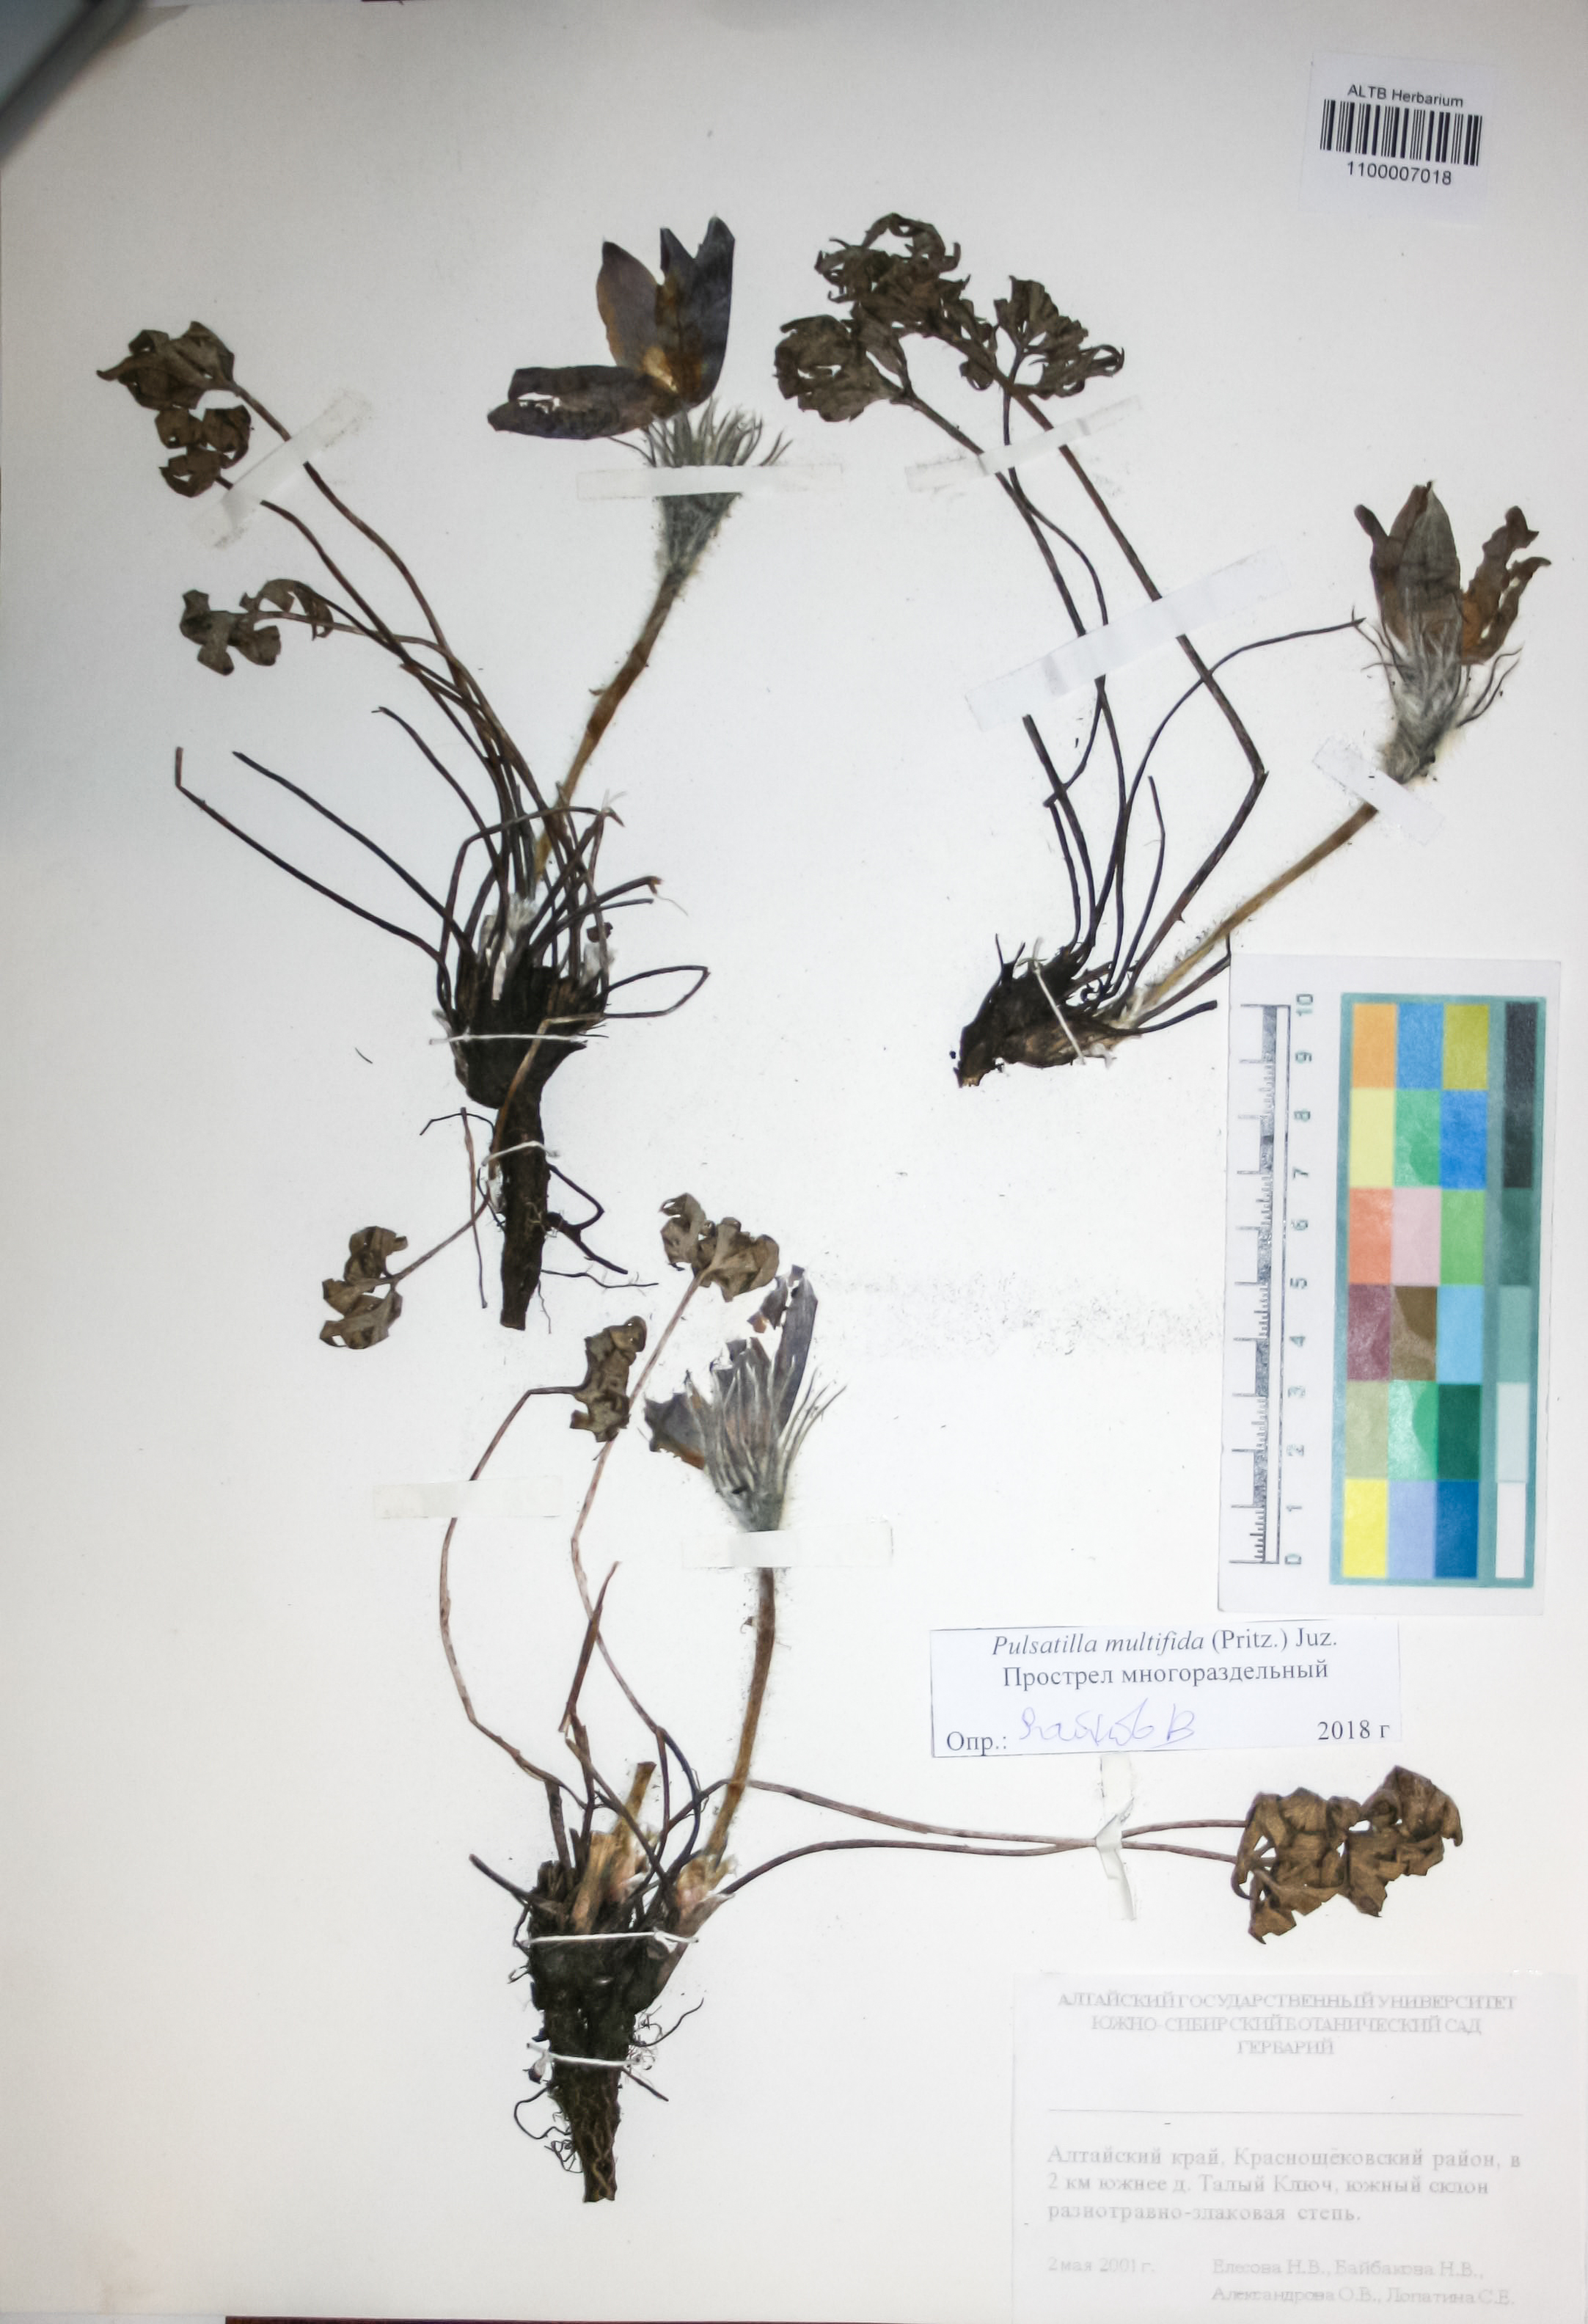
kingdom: Plantae
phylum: Tracheophyta
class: Magnoliopsida
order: Ranunculales
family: Ranunculaceae
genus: Pulsatilla
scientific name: Pulsatilla patens
